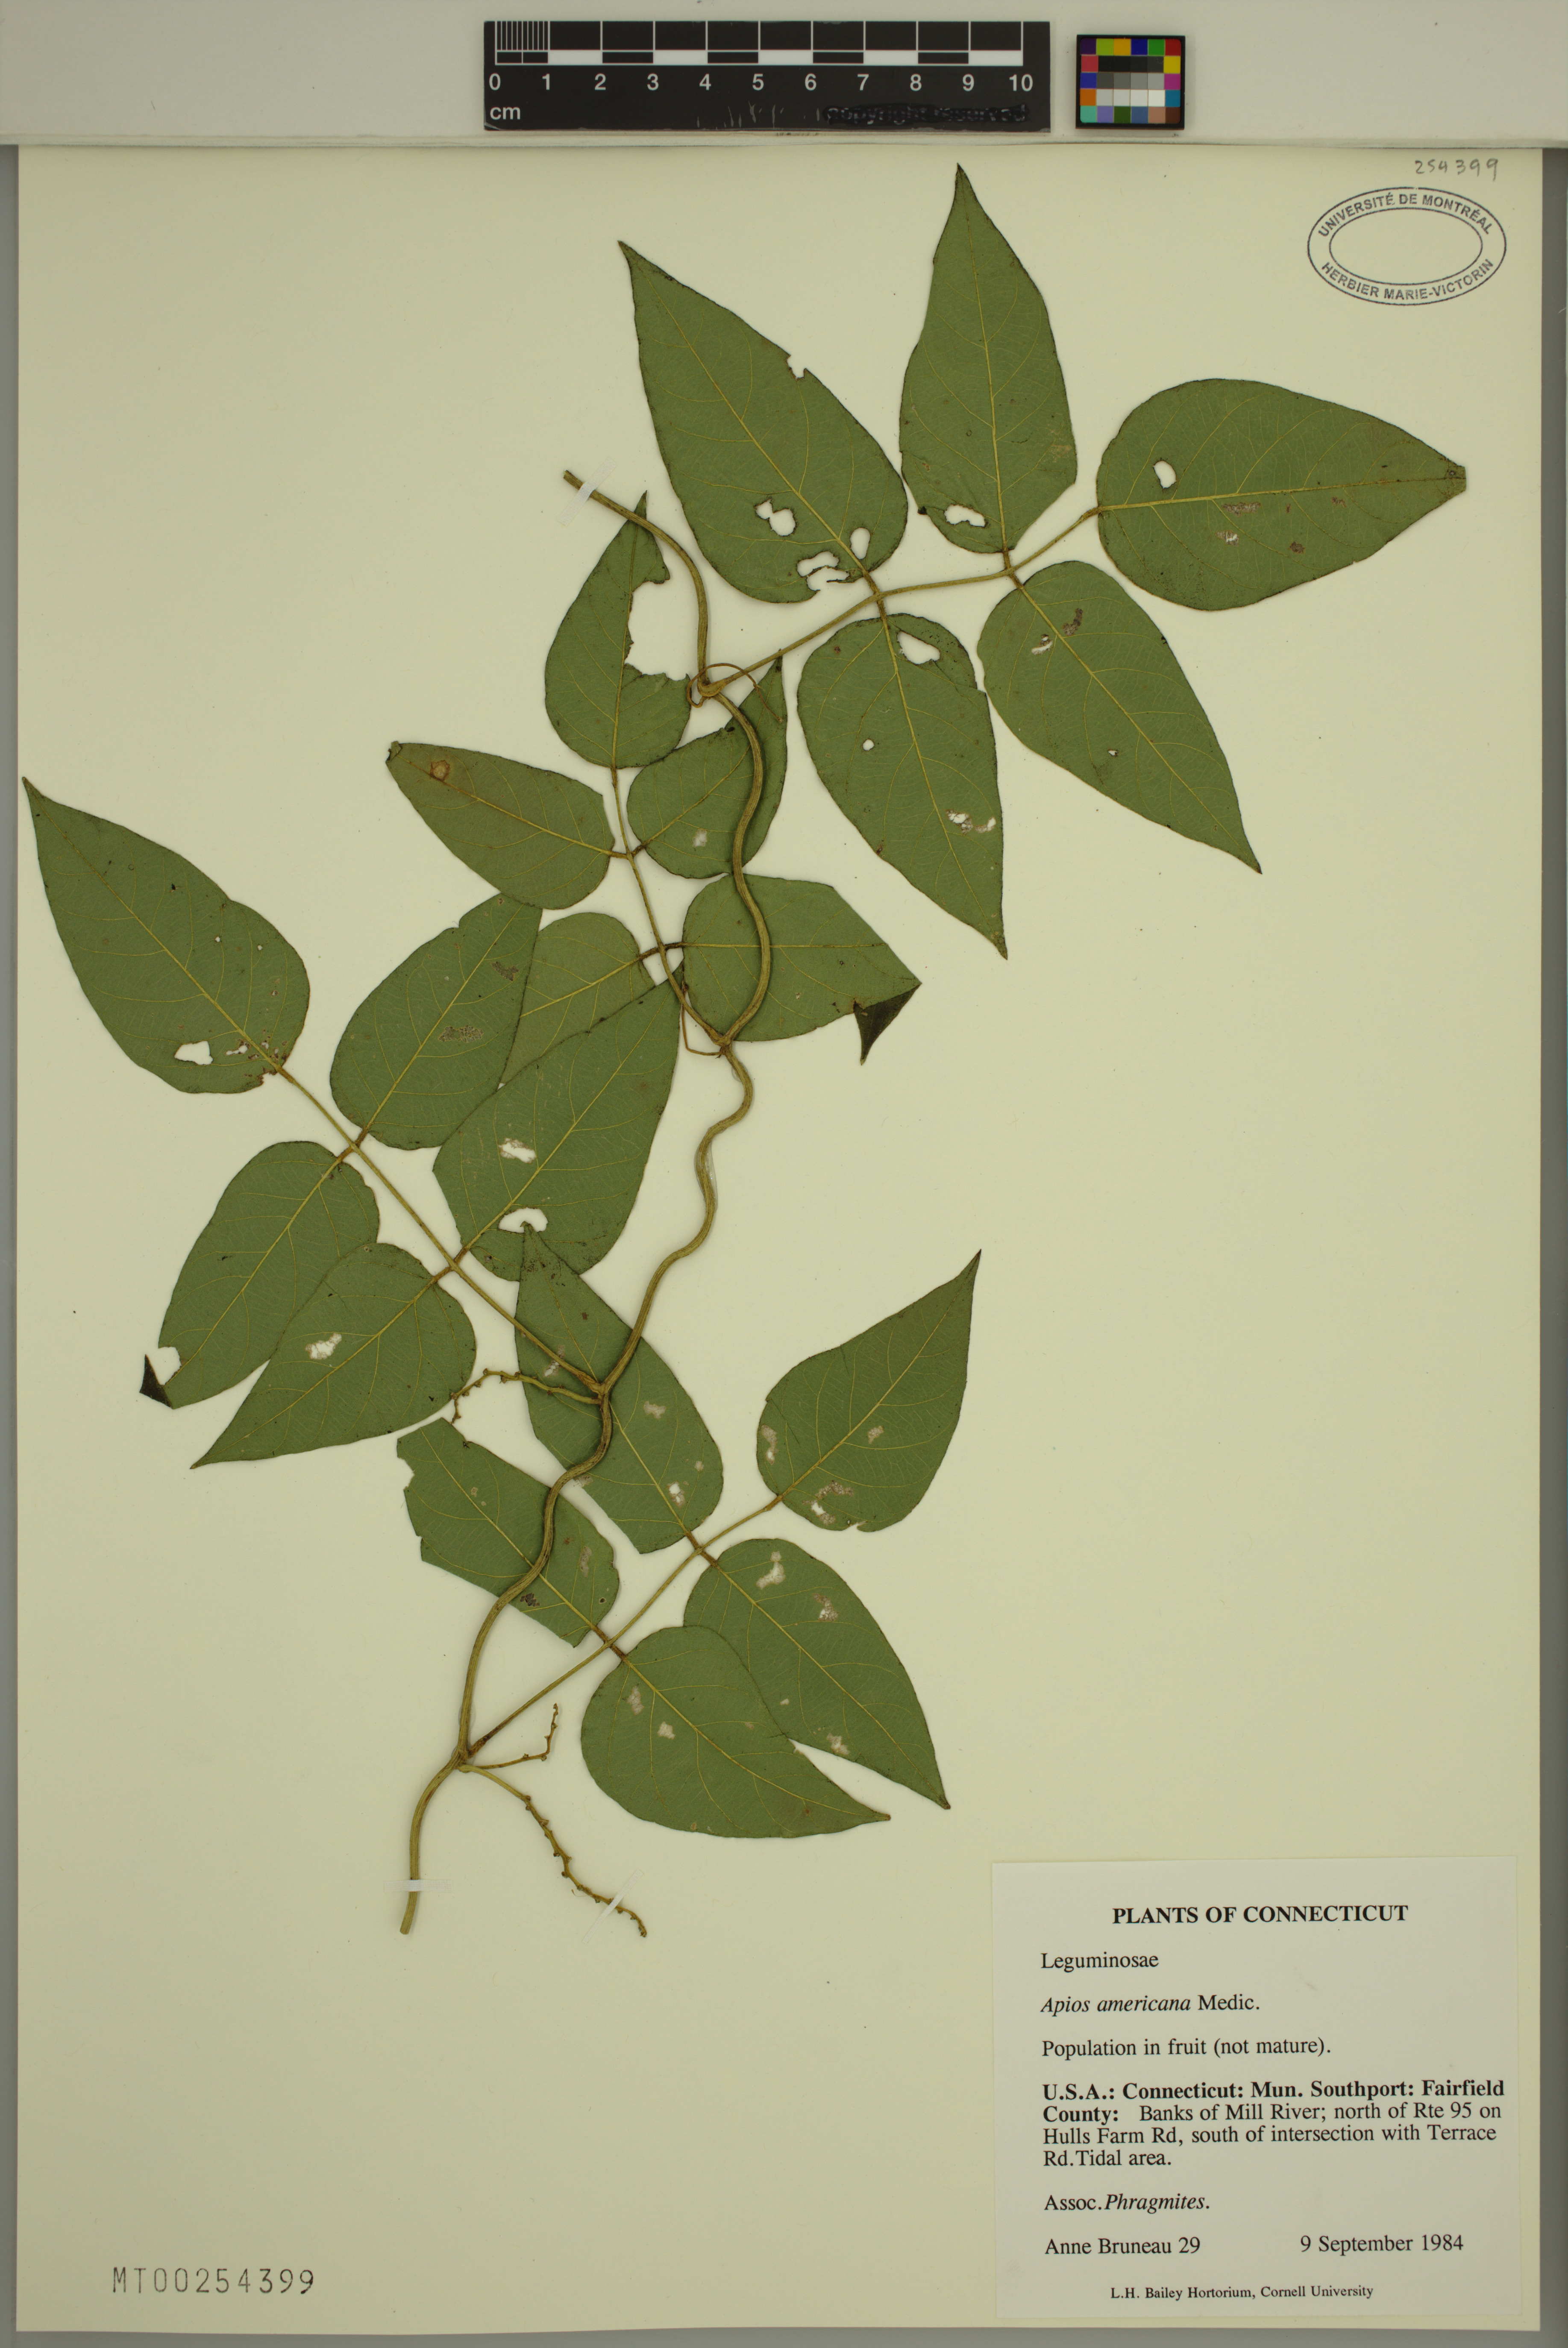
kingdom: Plantae
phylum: Tracheophyta
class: Magnoliopsida
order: Fabales
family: Fabaceae
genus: Apios
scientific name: Apios americana
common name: American potato-bean
